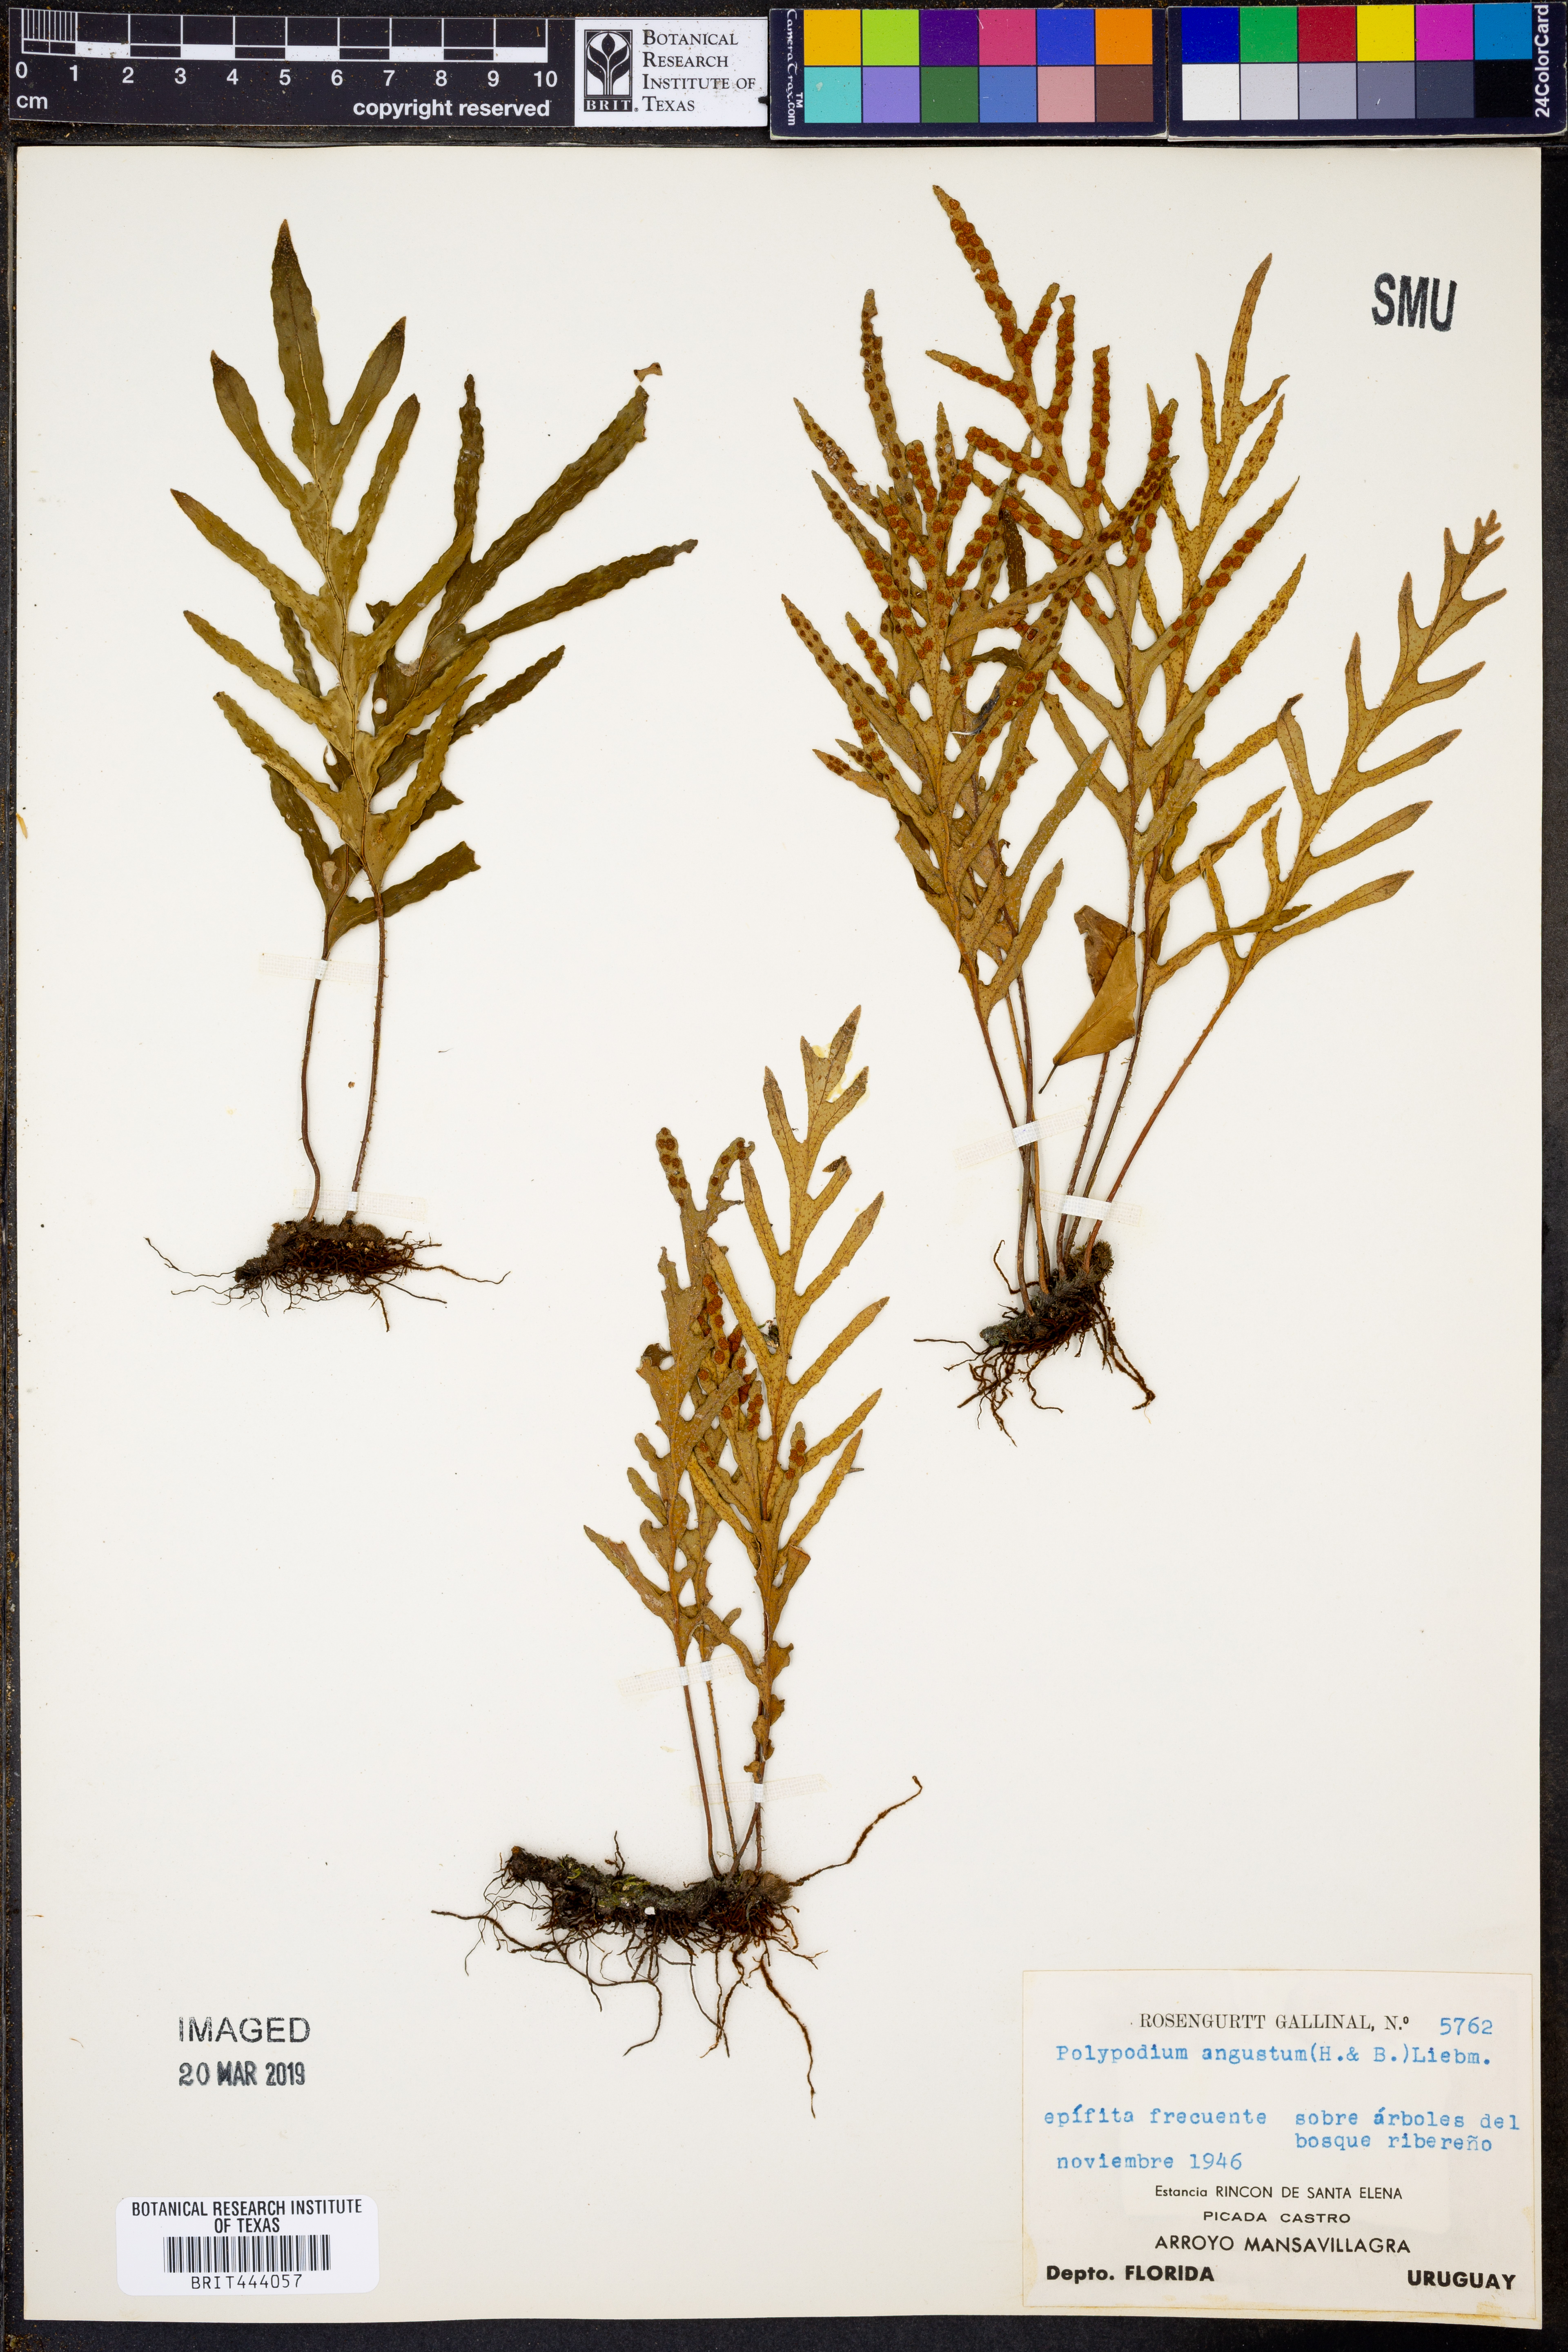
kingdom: Plantae
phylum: Tracheophyta
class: Polypodiopsida
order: Polypodiales
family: Polypodiaceae
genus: Pleopeltis
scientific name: Pleopeltis angusta
